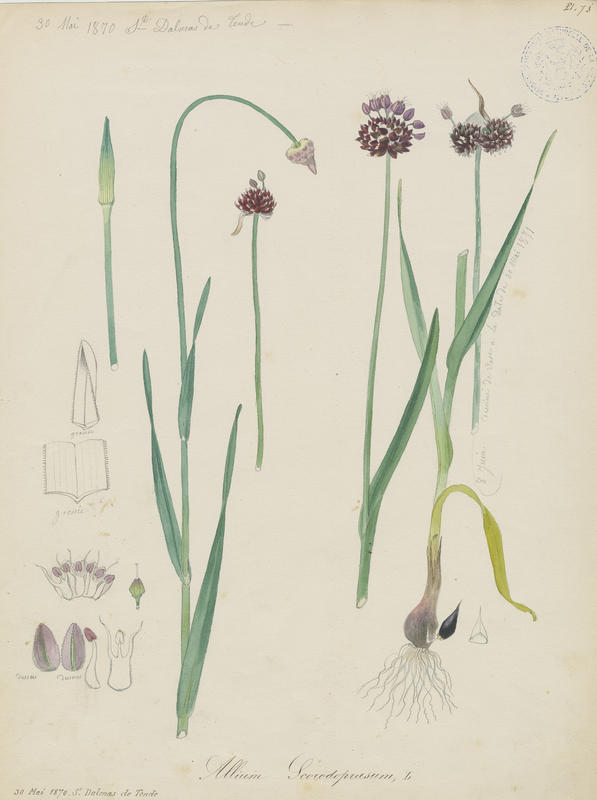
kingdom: Plantae
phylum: Tracheophyta
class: Liliopsida
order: Asparagales
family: Amaryllidaceae
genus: Allium
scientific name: Allium scorodoprasum
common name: Sand leek
